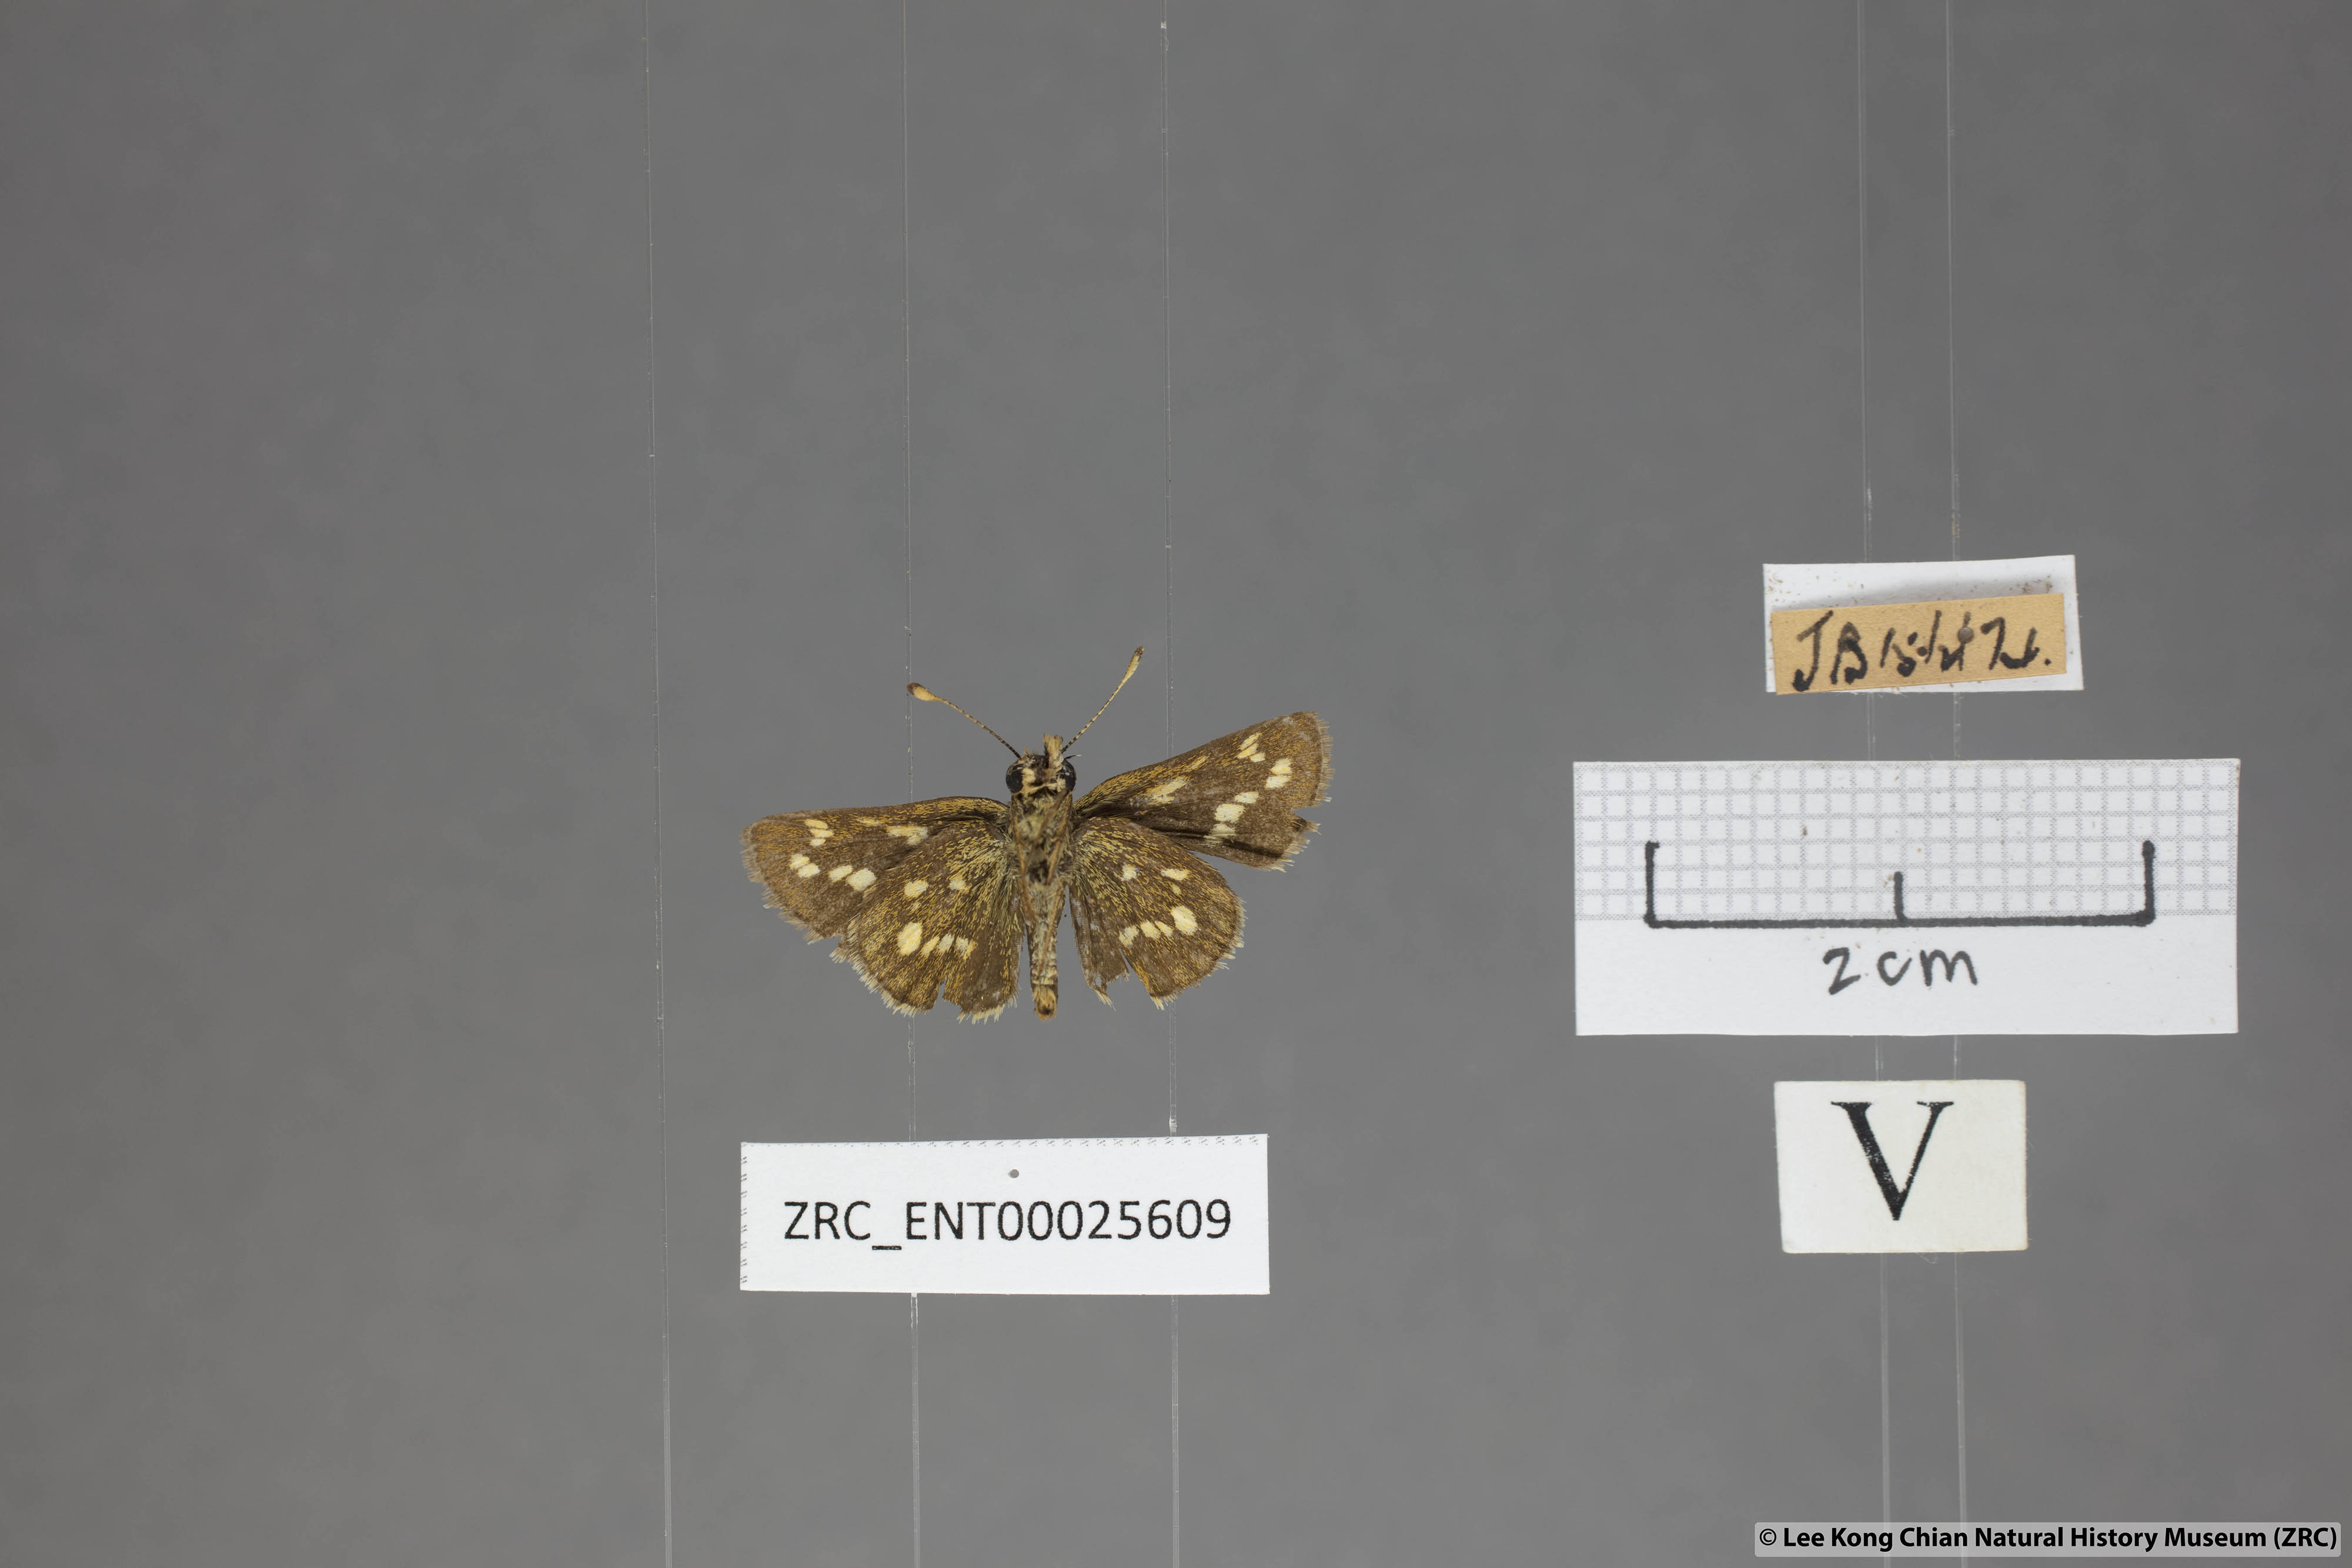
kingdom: Animalia
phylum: Arthropoda
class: Insecta
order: Lepidoptera
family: Hesperiidae
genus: Taractrocera
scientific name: Taractrocera ardonia
